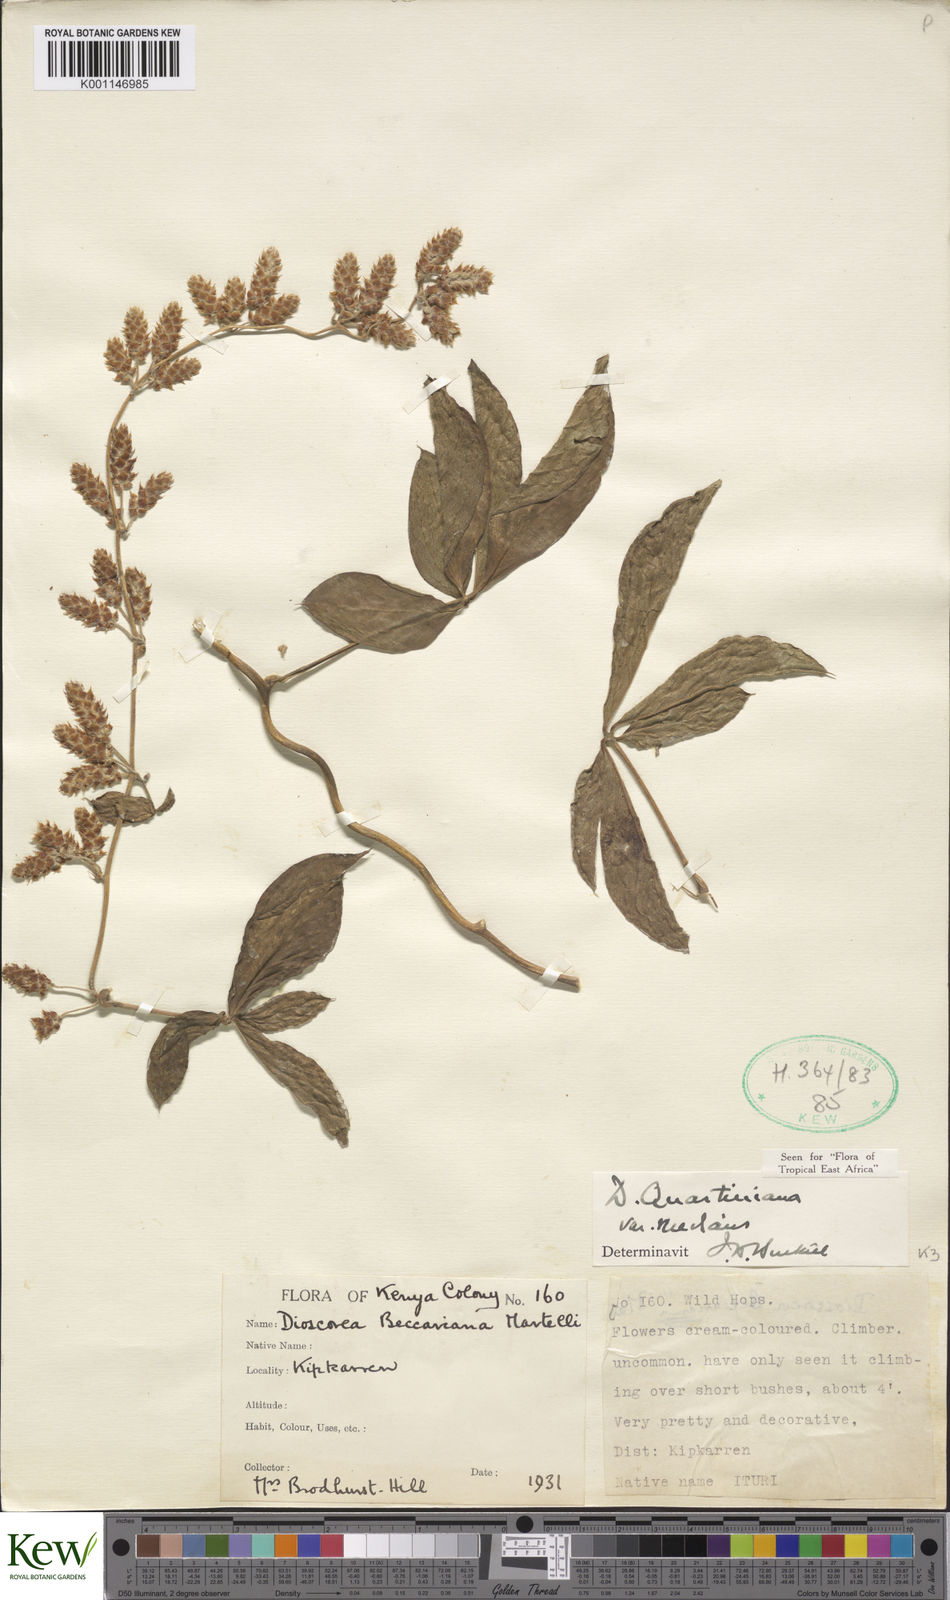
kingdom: Plantae
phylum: Tracheophyta
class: Liliopsida
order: Dioscoreales
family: Dioscoreaceae
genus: Dioscorea
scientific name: Dioscorea quartiniana
